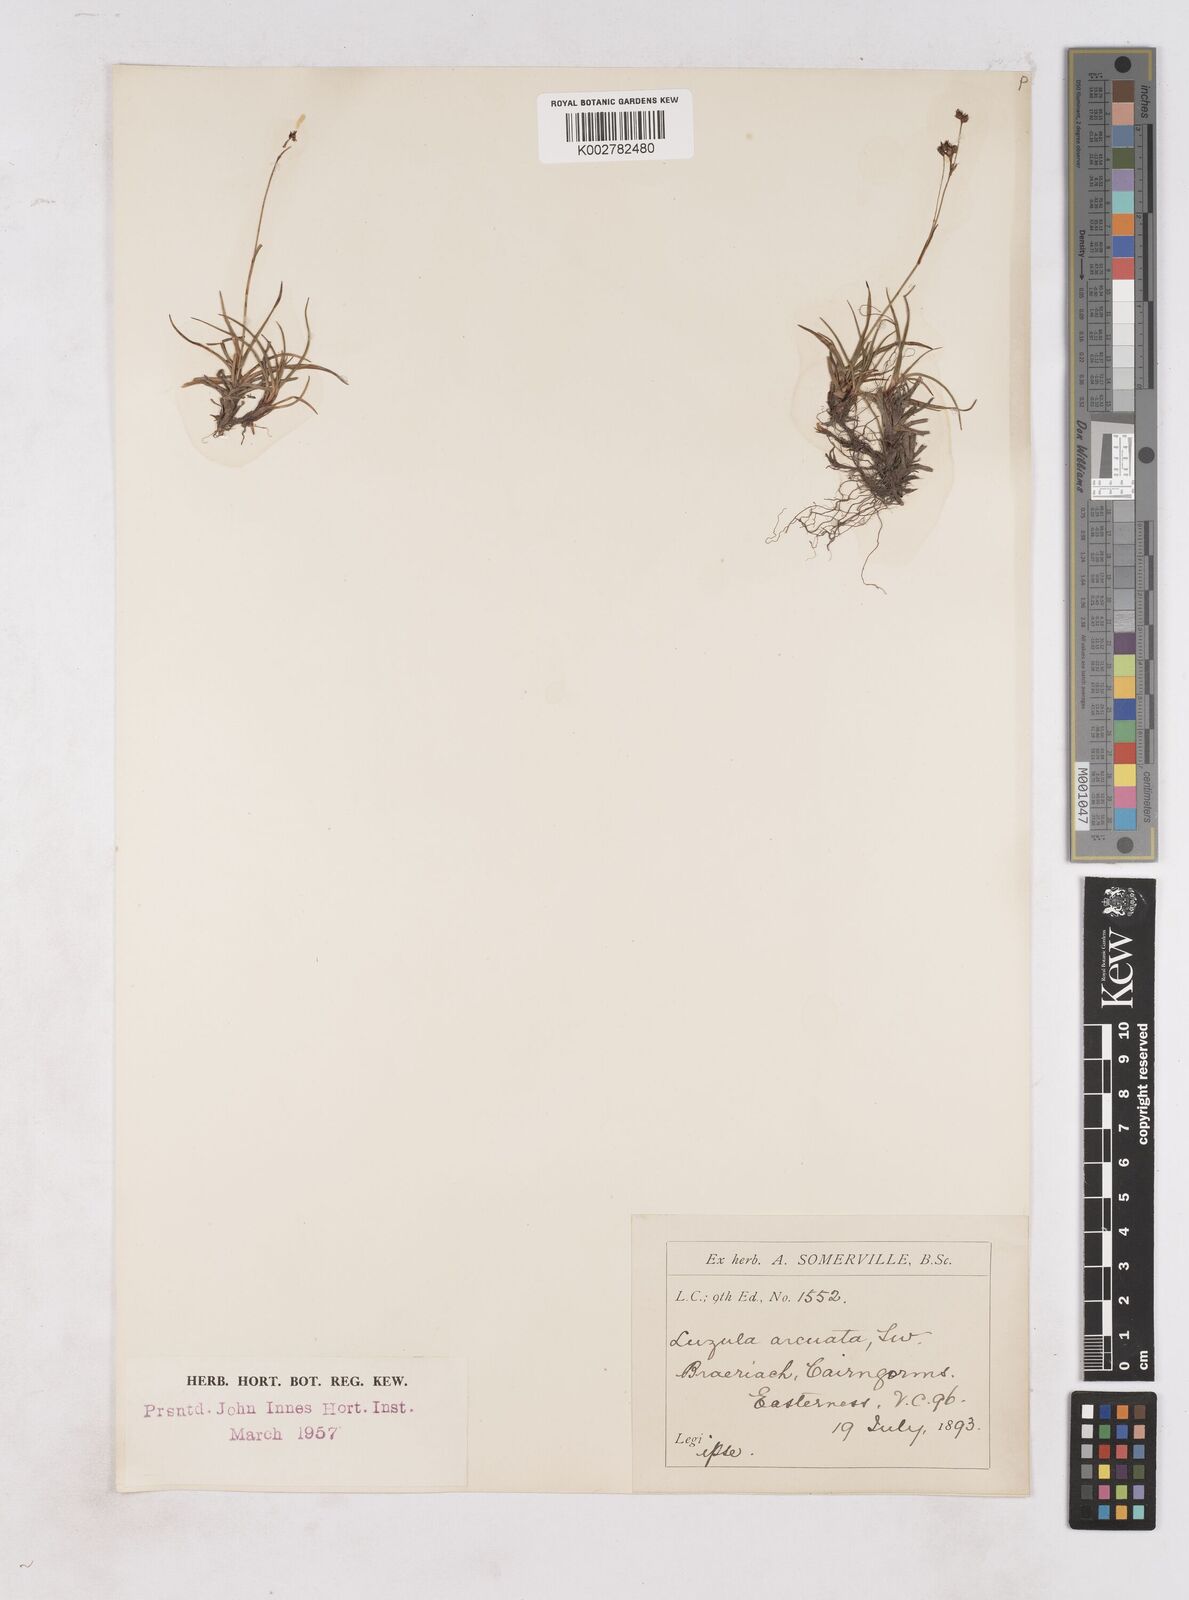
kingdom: Plantae
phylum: Tracheophyta
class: Liliopsida
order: Poales
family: Juncaceae
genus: Luzula
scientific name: Luzula arcuata
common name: Curved wood-rush
